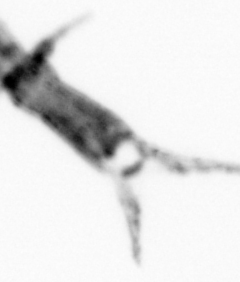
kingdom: Animalia
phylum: Arthropoda
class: Copepoda
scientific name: Copepoda
